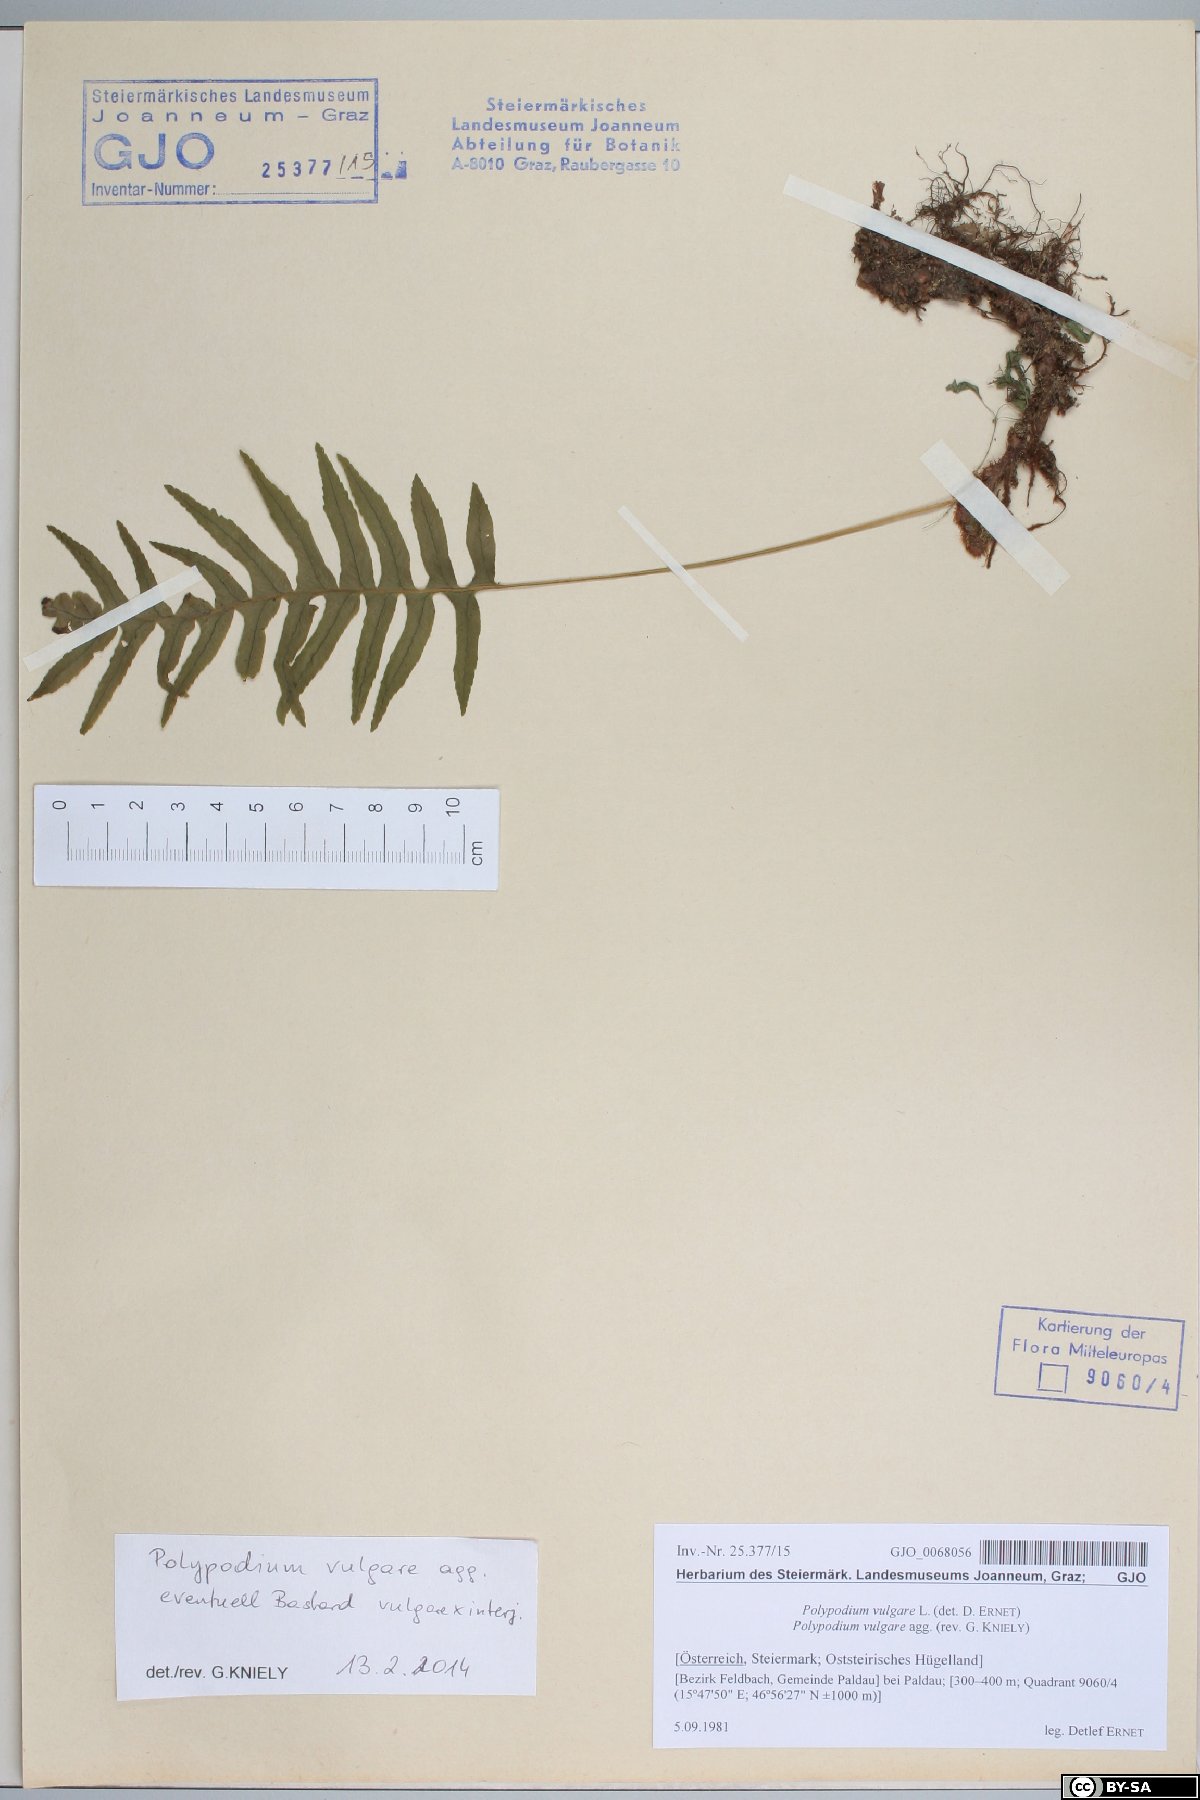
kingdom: Plantae
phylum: Tracheophyta
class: Polypodiopsida
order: Polypodiales
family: Polypodiaceae
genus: Polypodium
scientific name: Polypodium vulgare
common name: Common polypody
